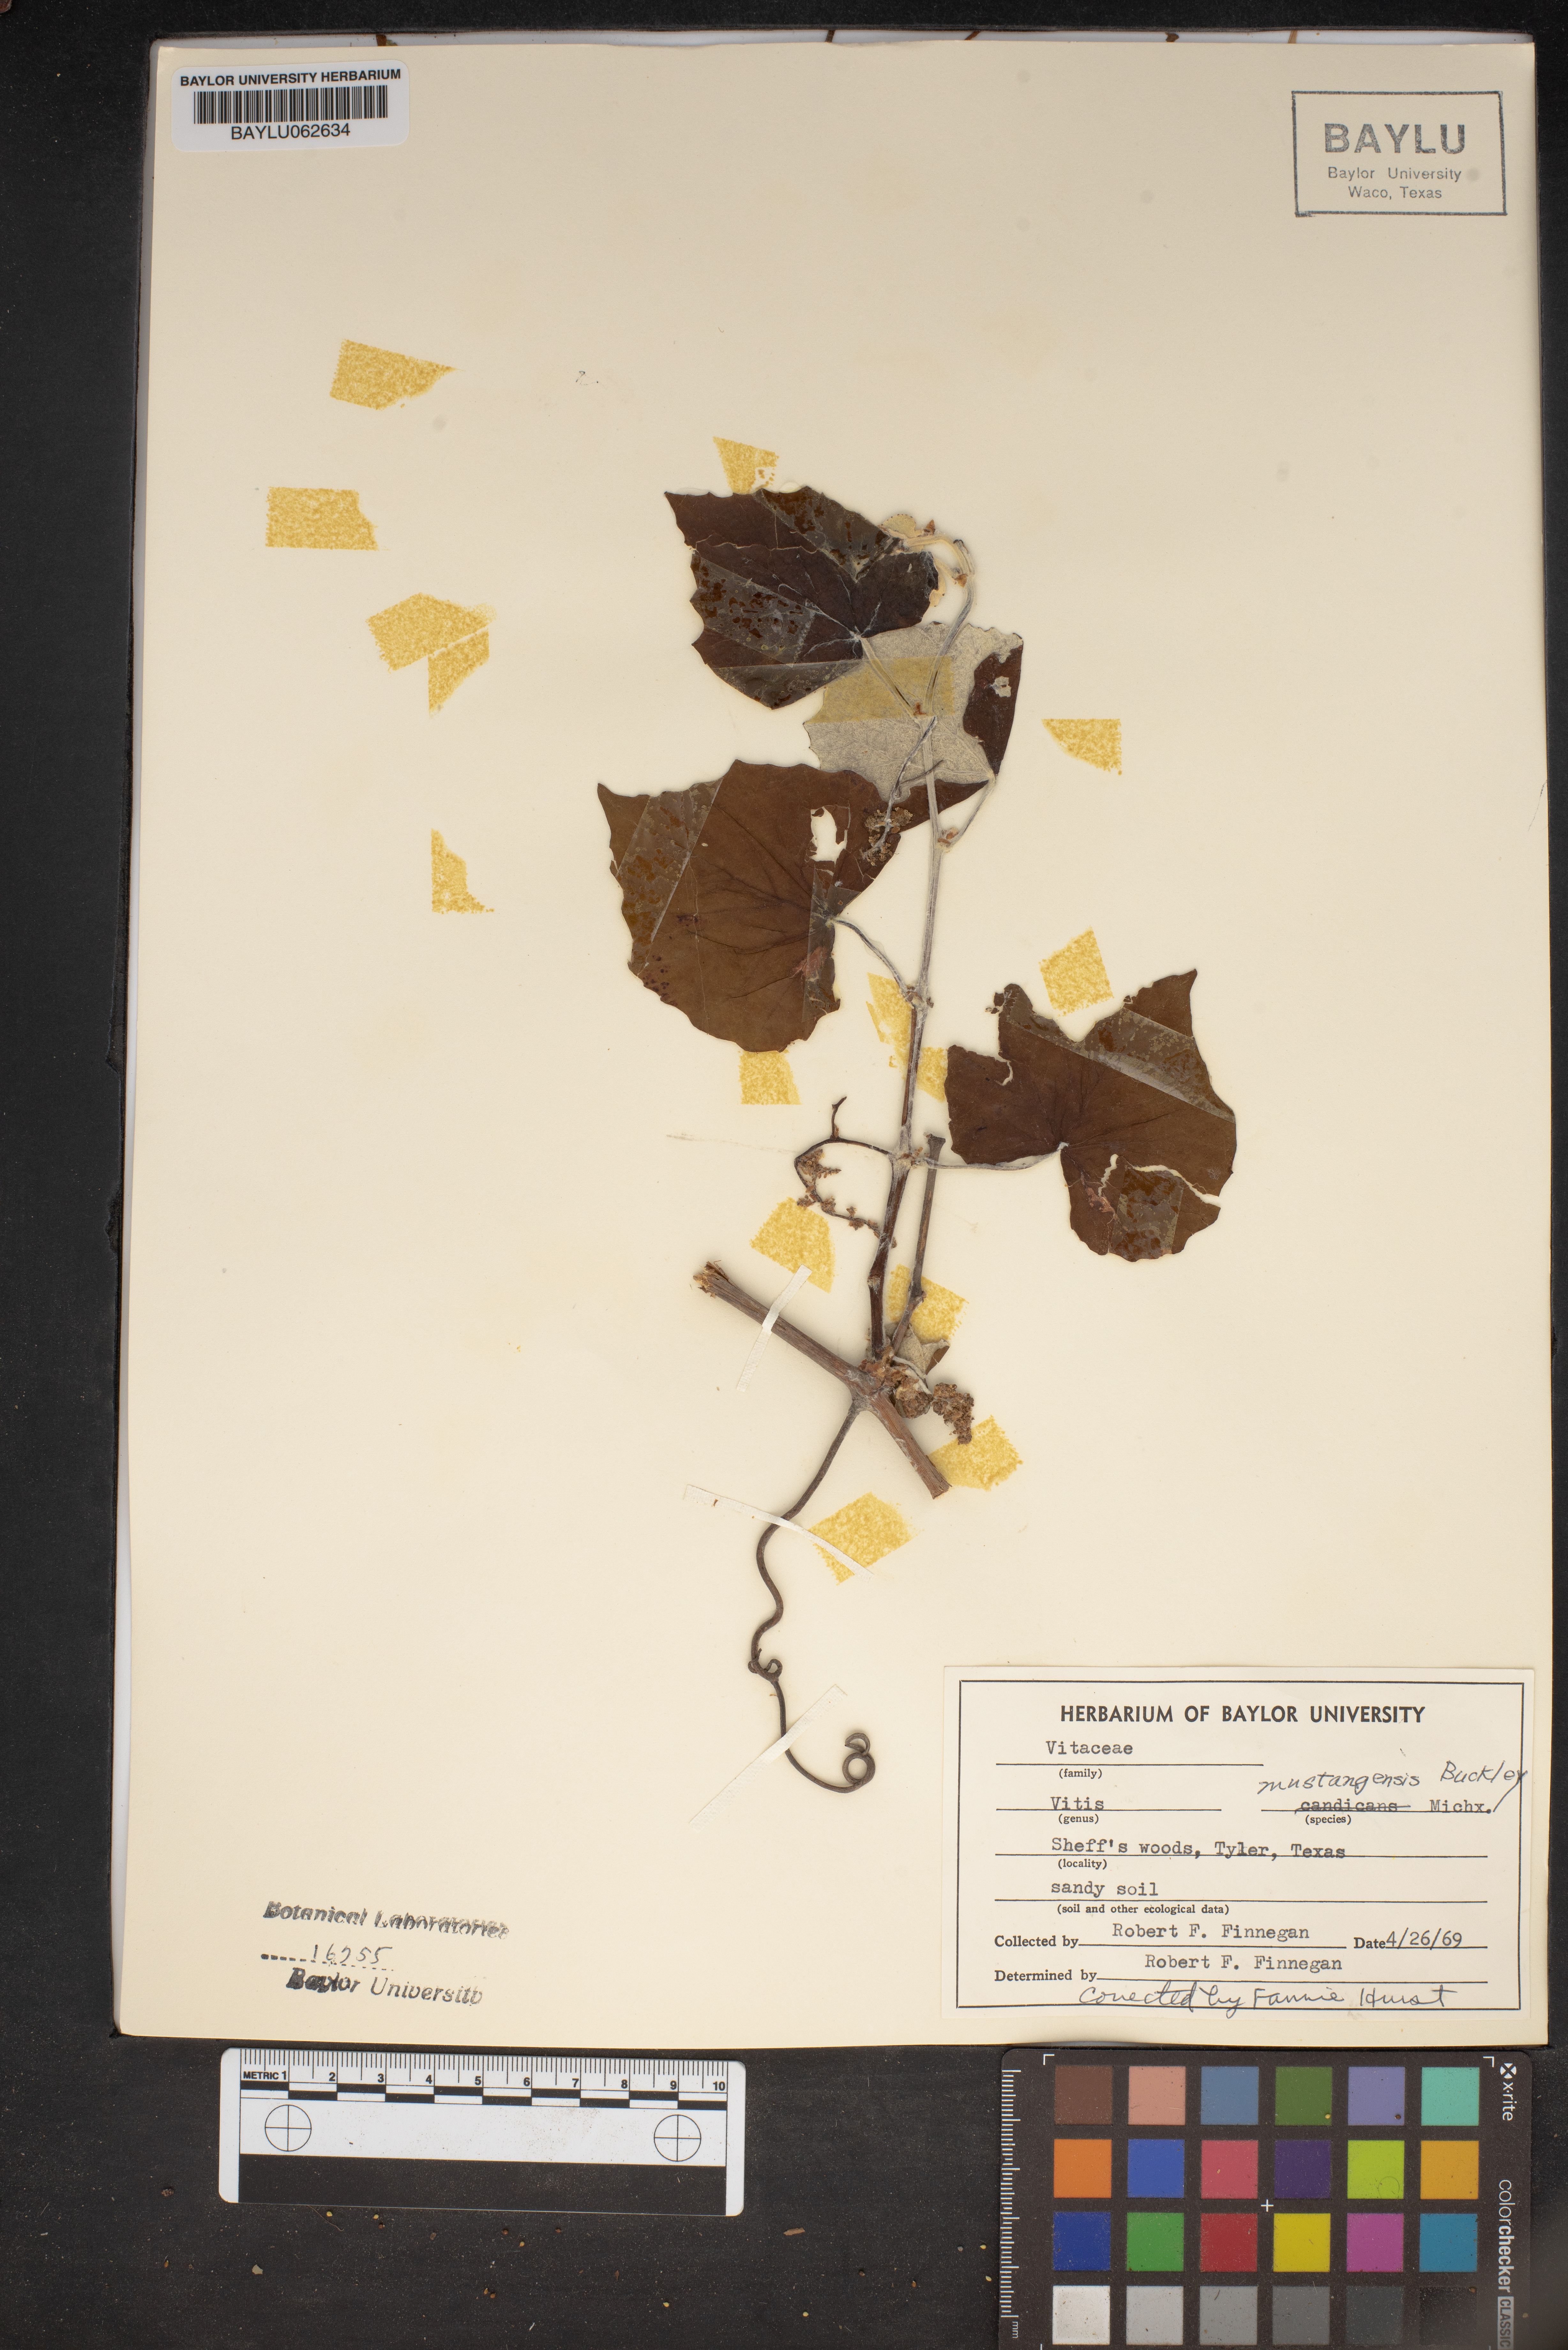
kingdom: Plantae
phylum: Tracheophyta
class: Magnoliopsida
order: Vitales
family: Vitaceae
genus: Vitis
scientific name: Vitis mustangensis
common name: Mustang grape
